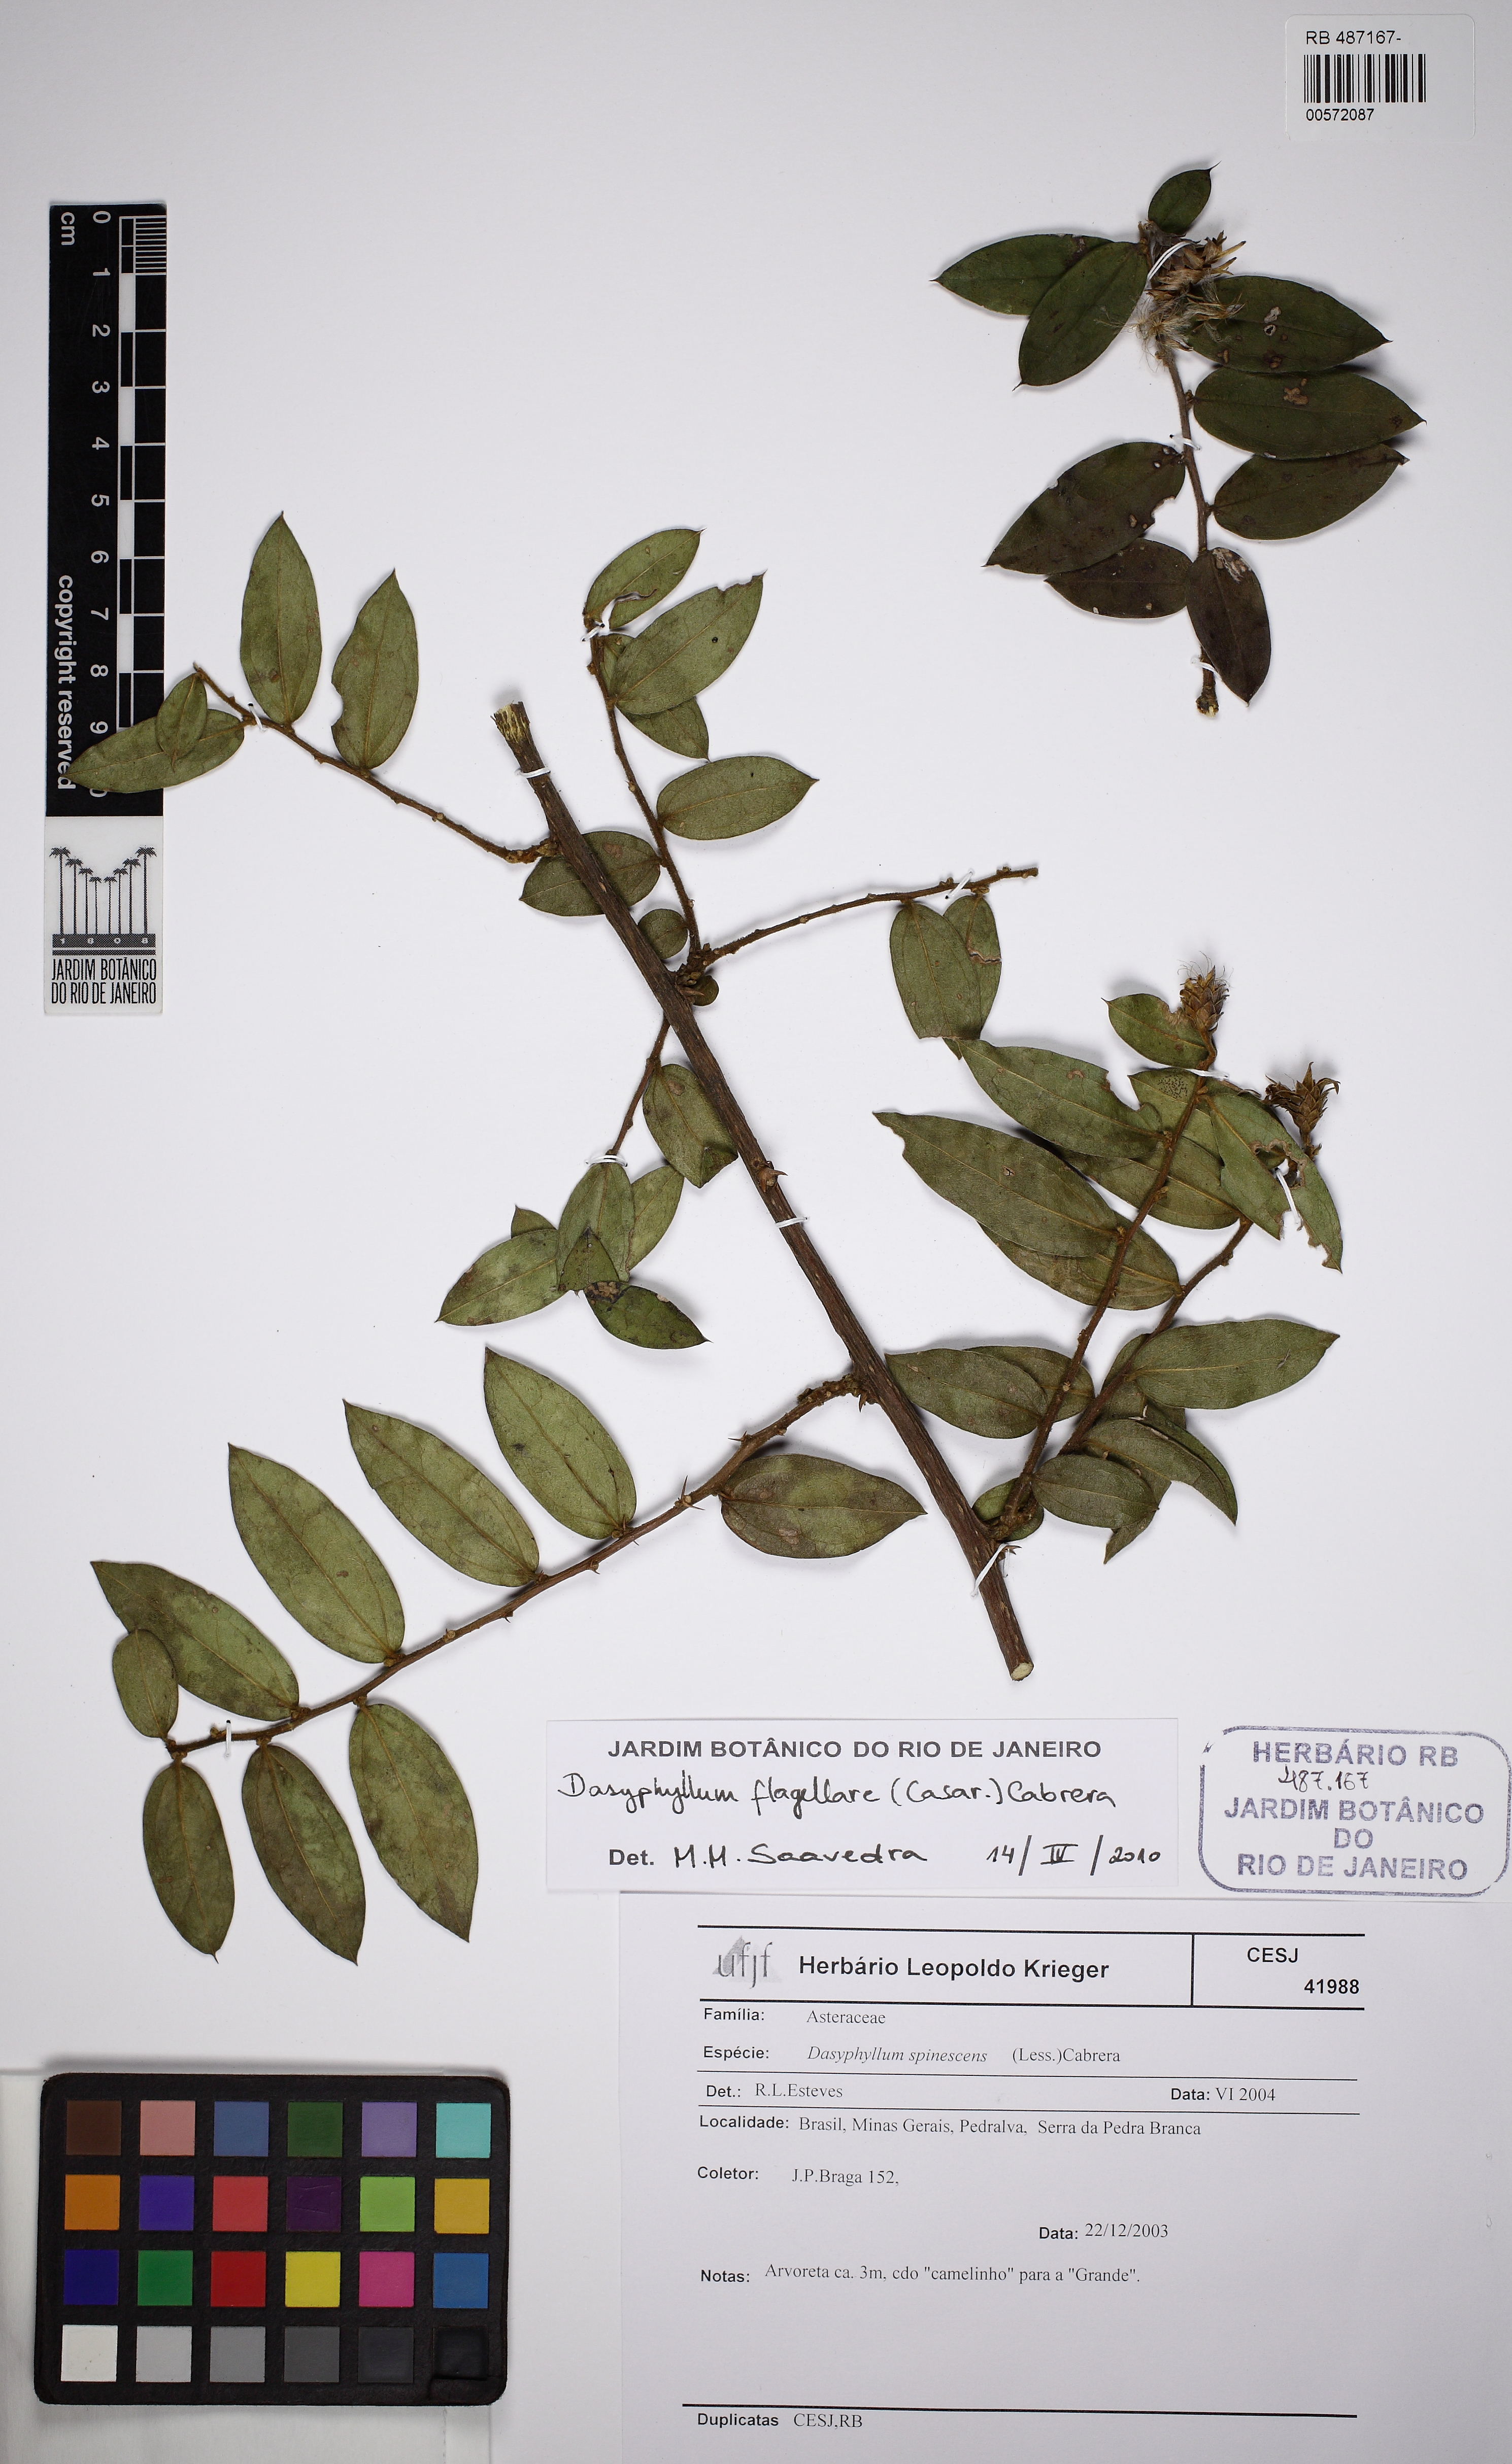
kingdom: Plantae
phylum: Tracheophyta
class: Magnoliopsida
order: Asterales
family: Asteraceae
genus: Dasyphyllum
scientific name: Dasyphyllum flagellare
